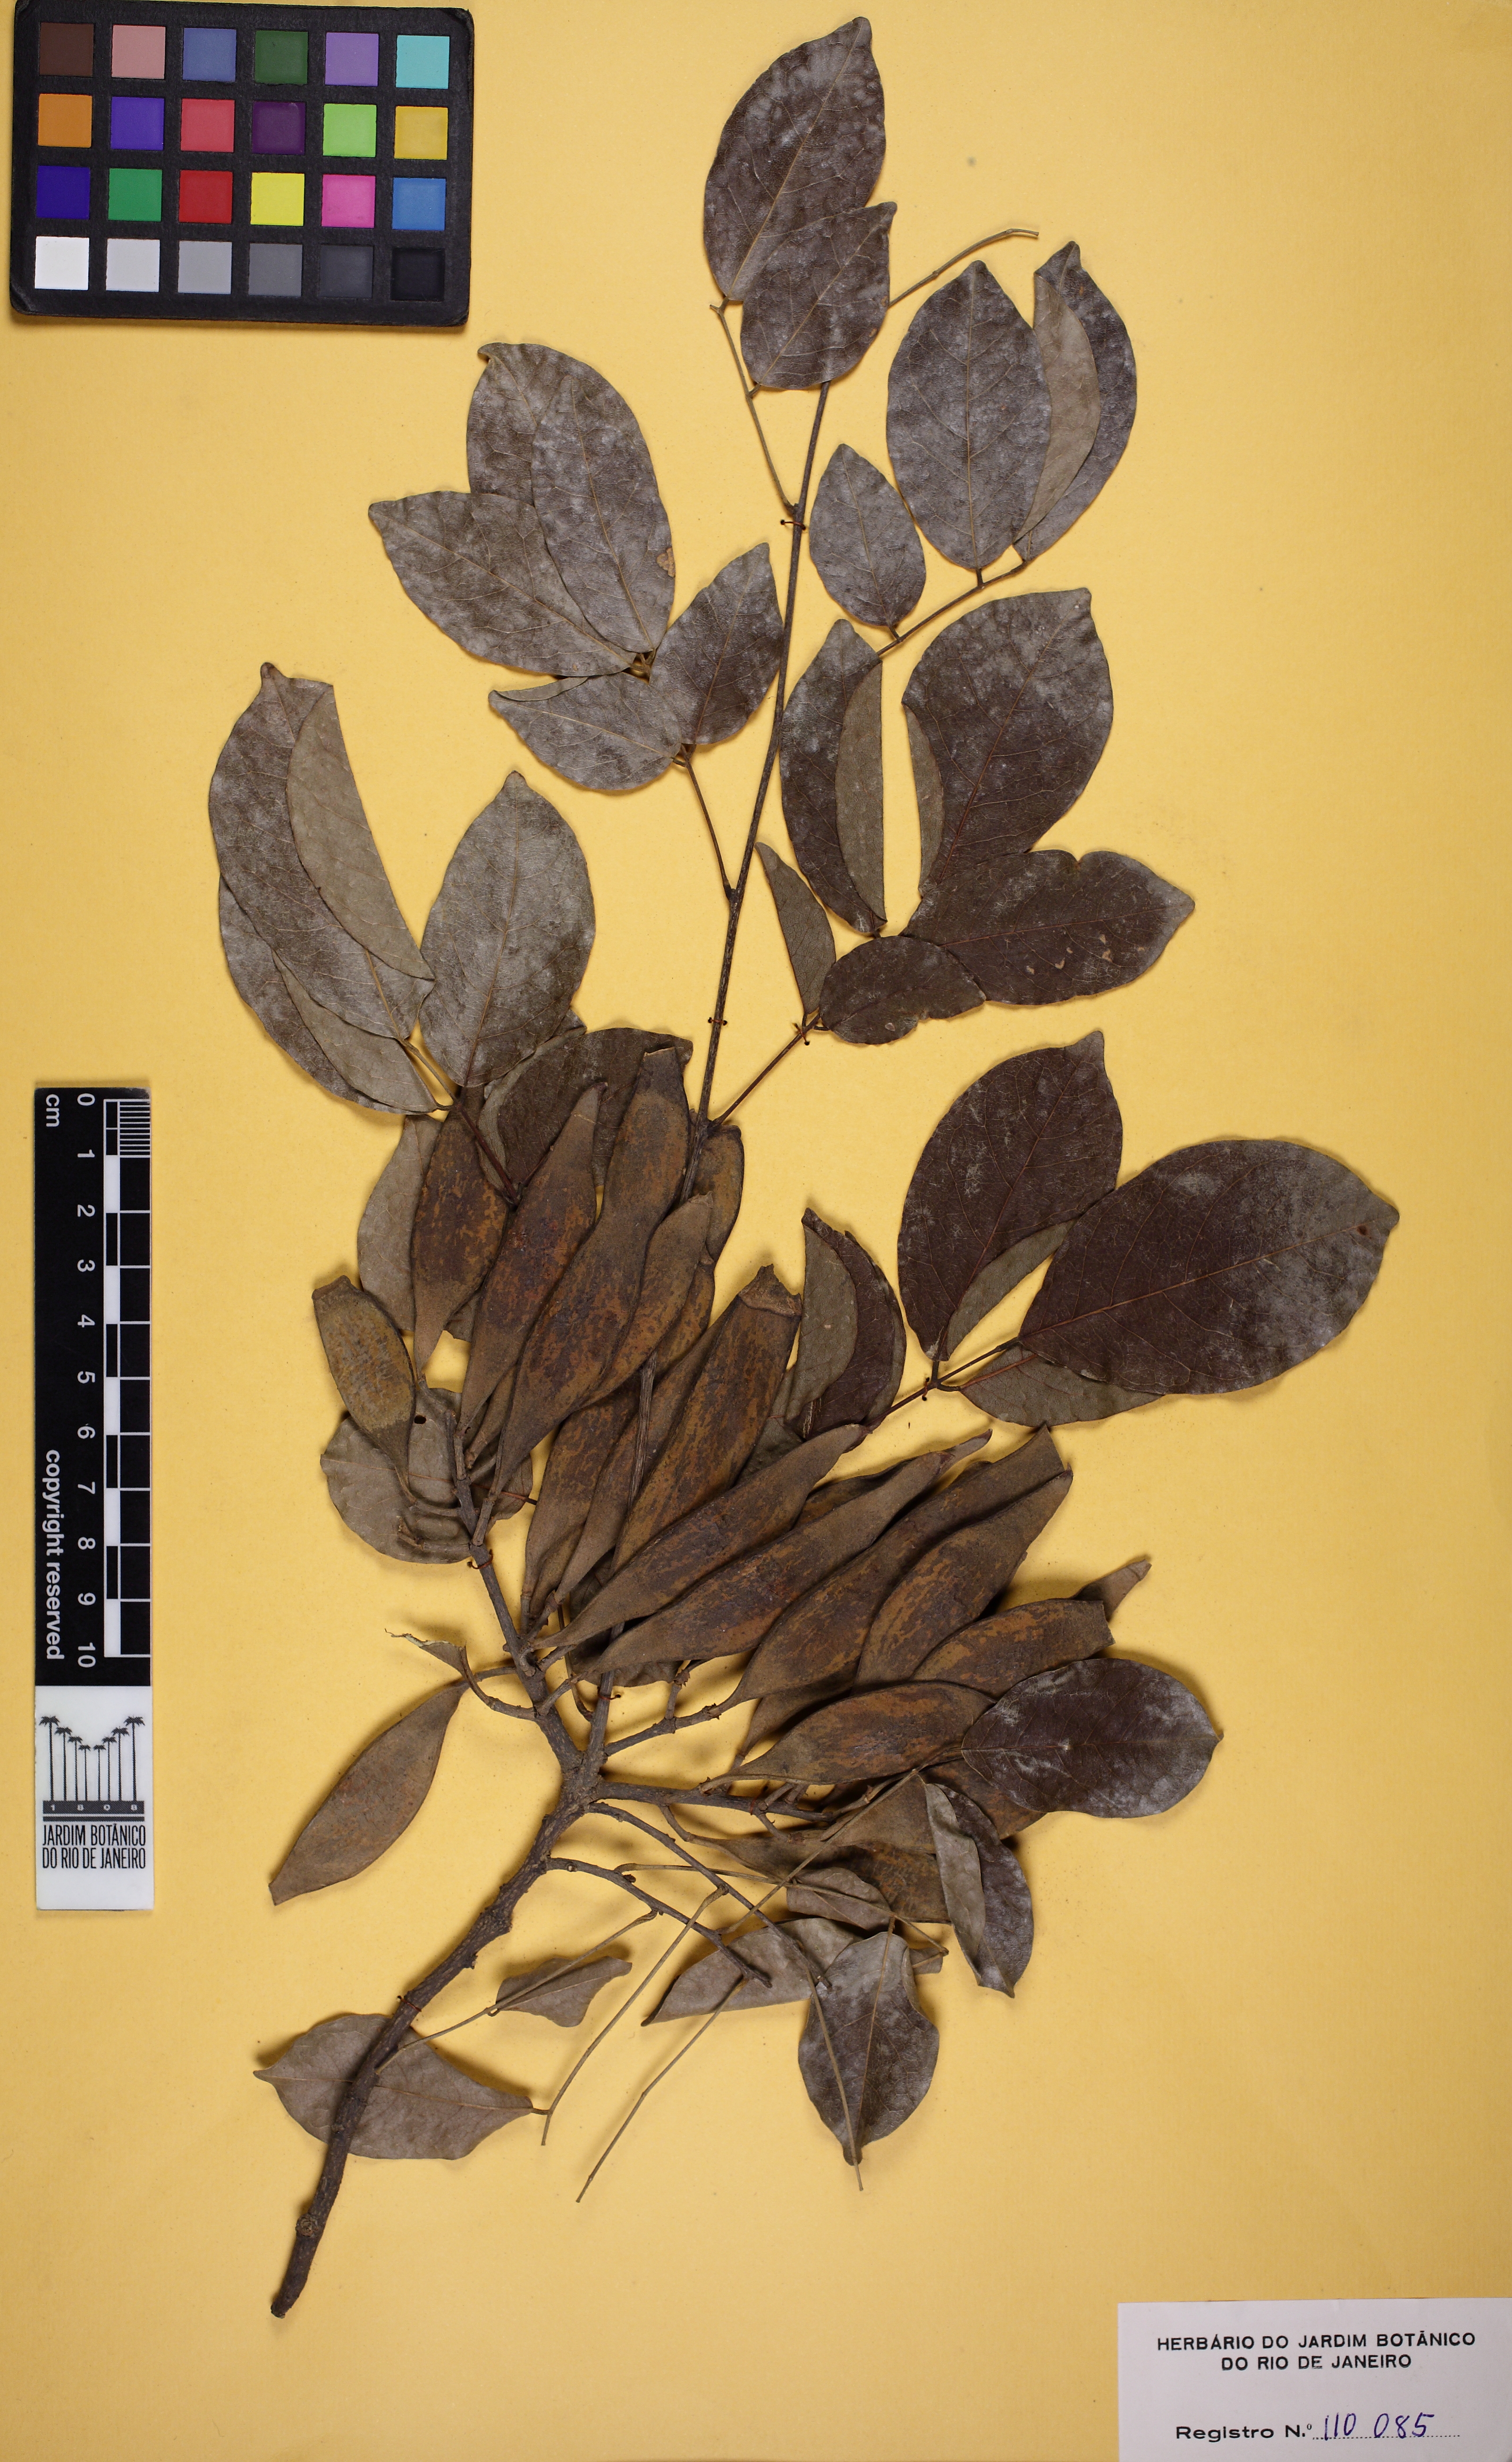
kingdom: Plantae
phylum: Tracheophyta
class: Magnoliopsida
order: Fabales
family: Fabaceae
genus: Muellera
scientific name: Muellera virgilioides
